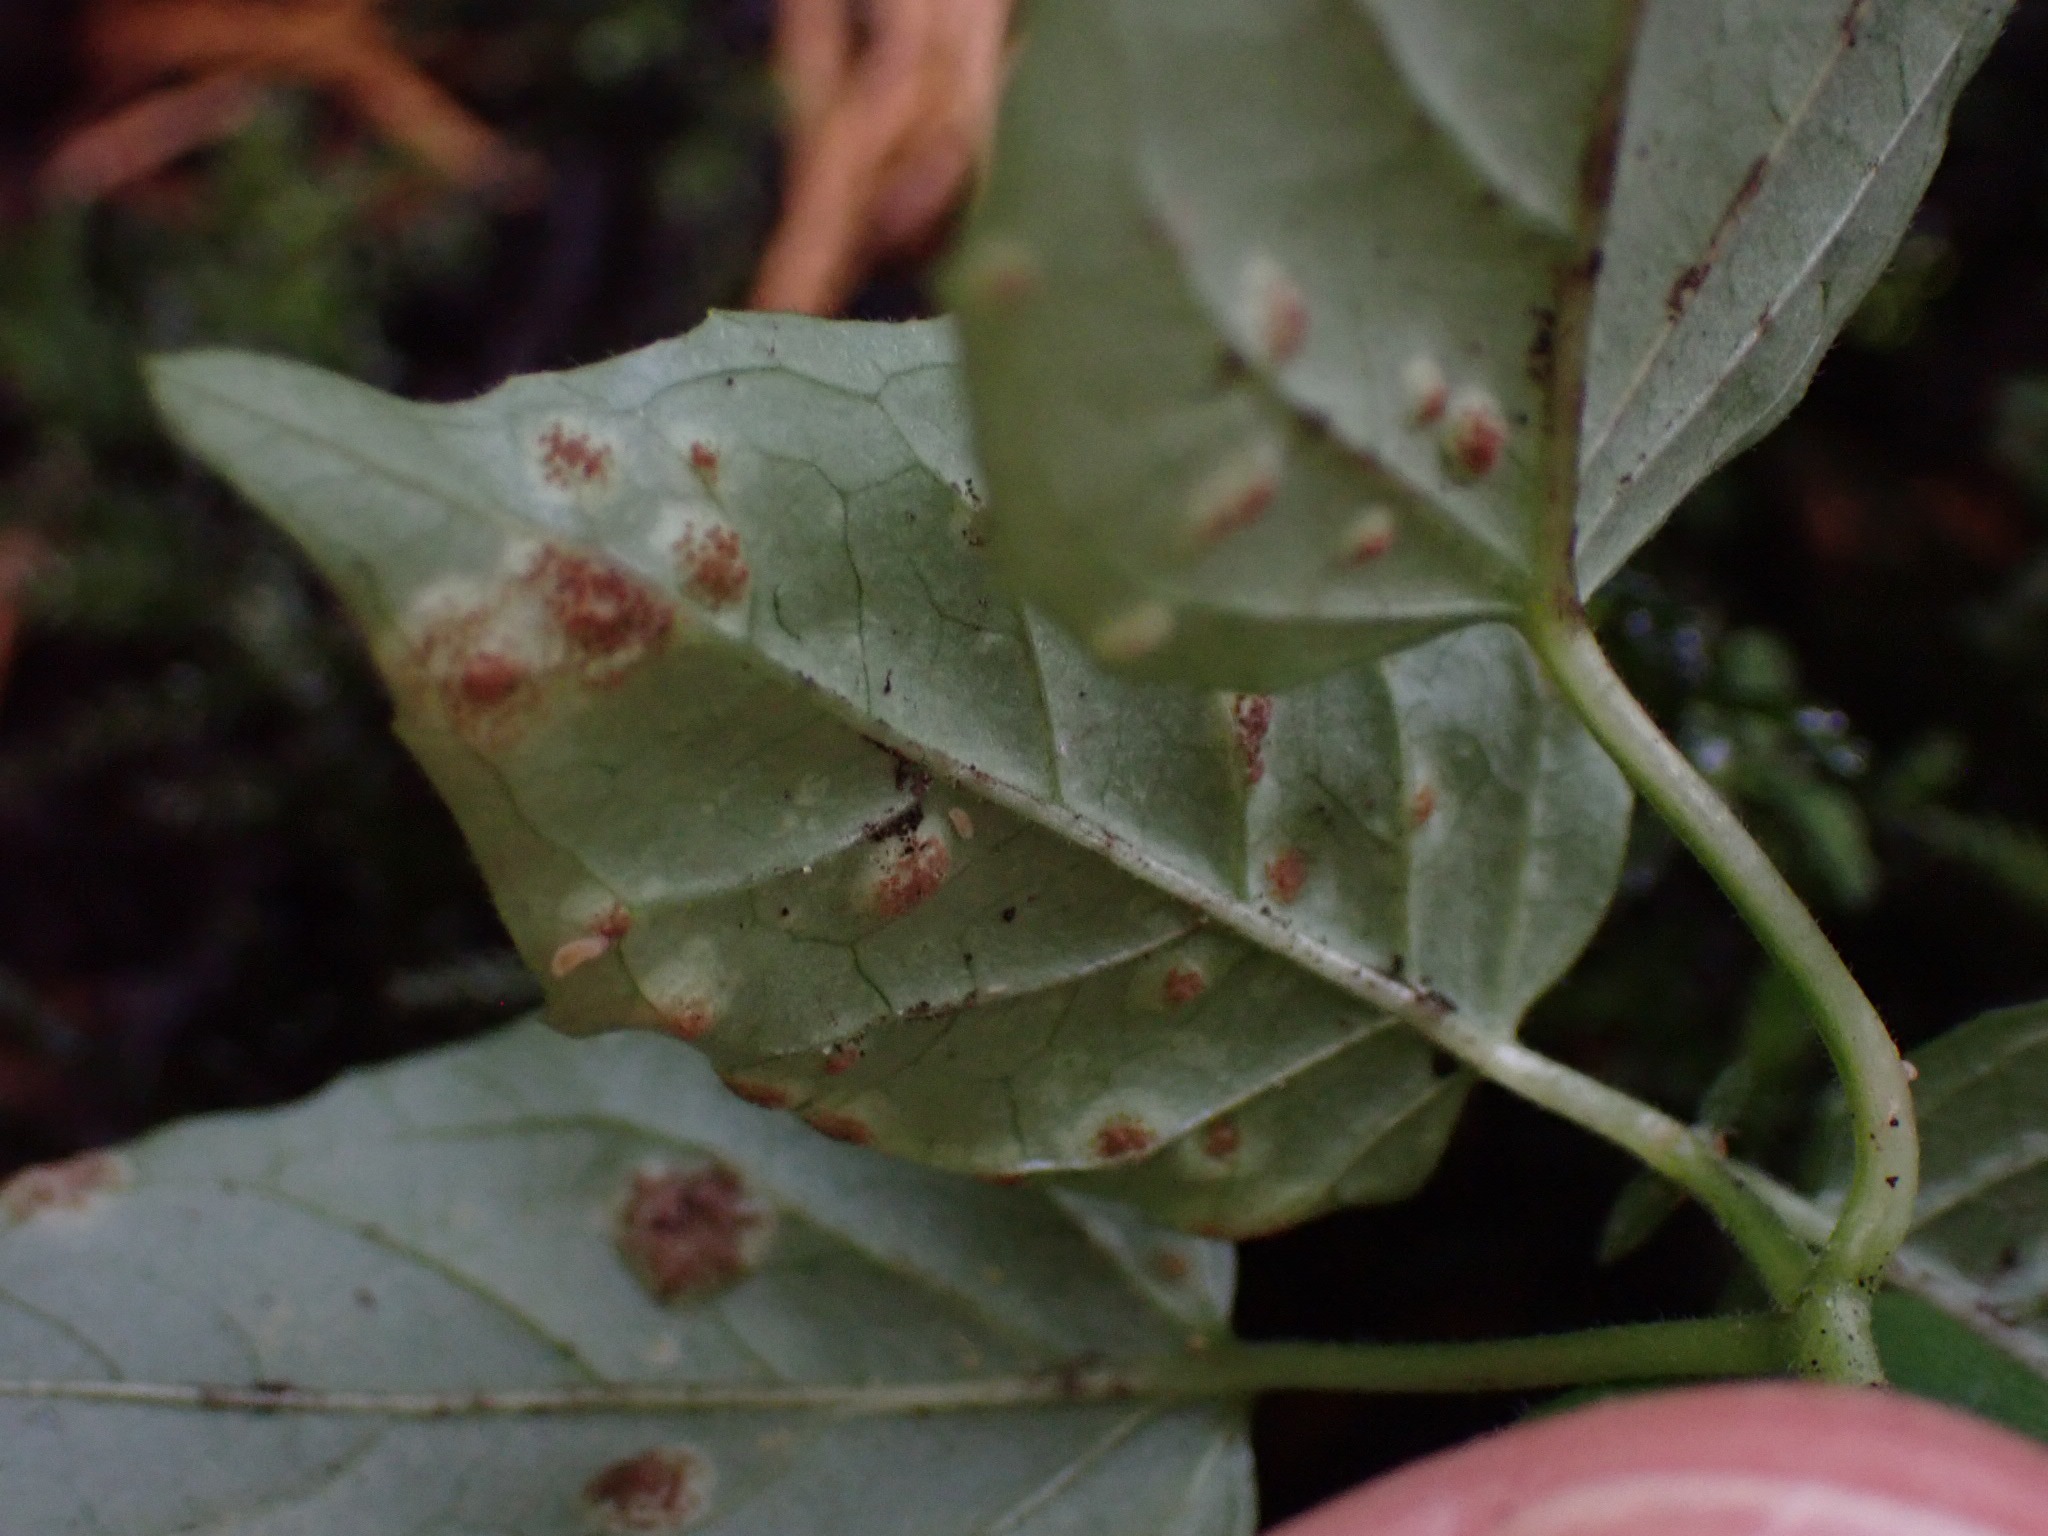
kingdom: Fungi
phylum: Basidiomycota
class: Pucciniomycetes
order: Pucciniales
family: Pucciniaceae
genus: Puccinia
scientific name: Puccinia circaeae
